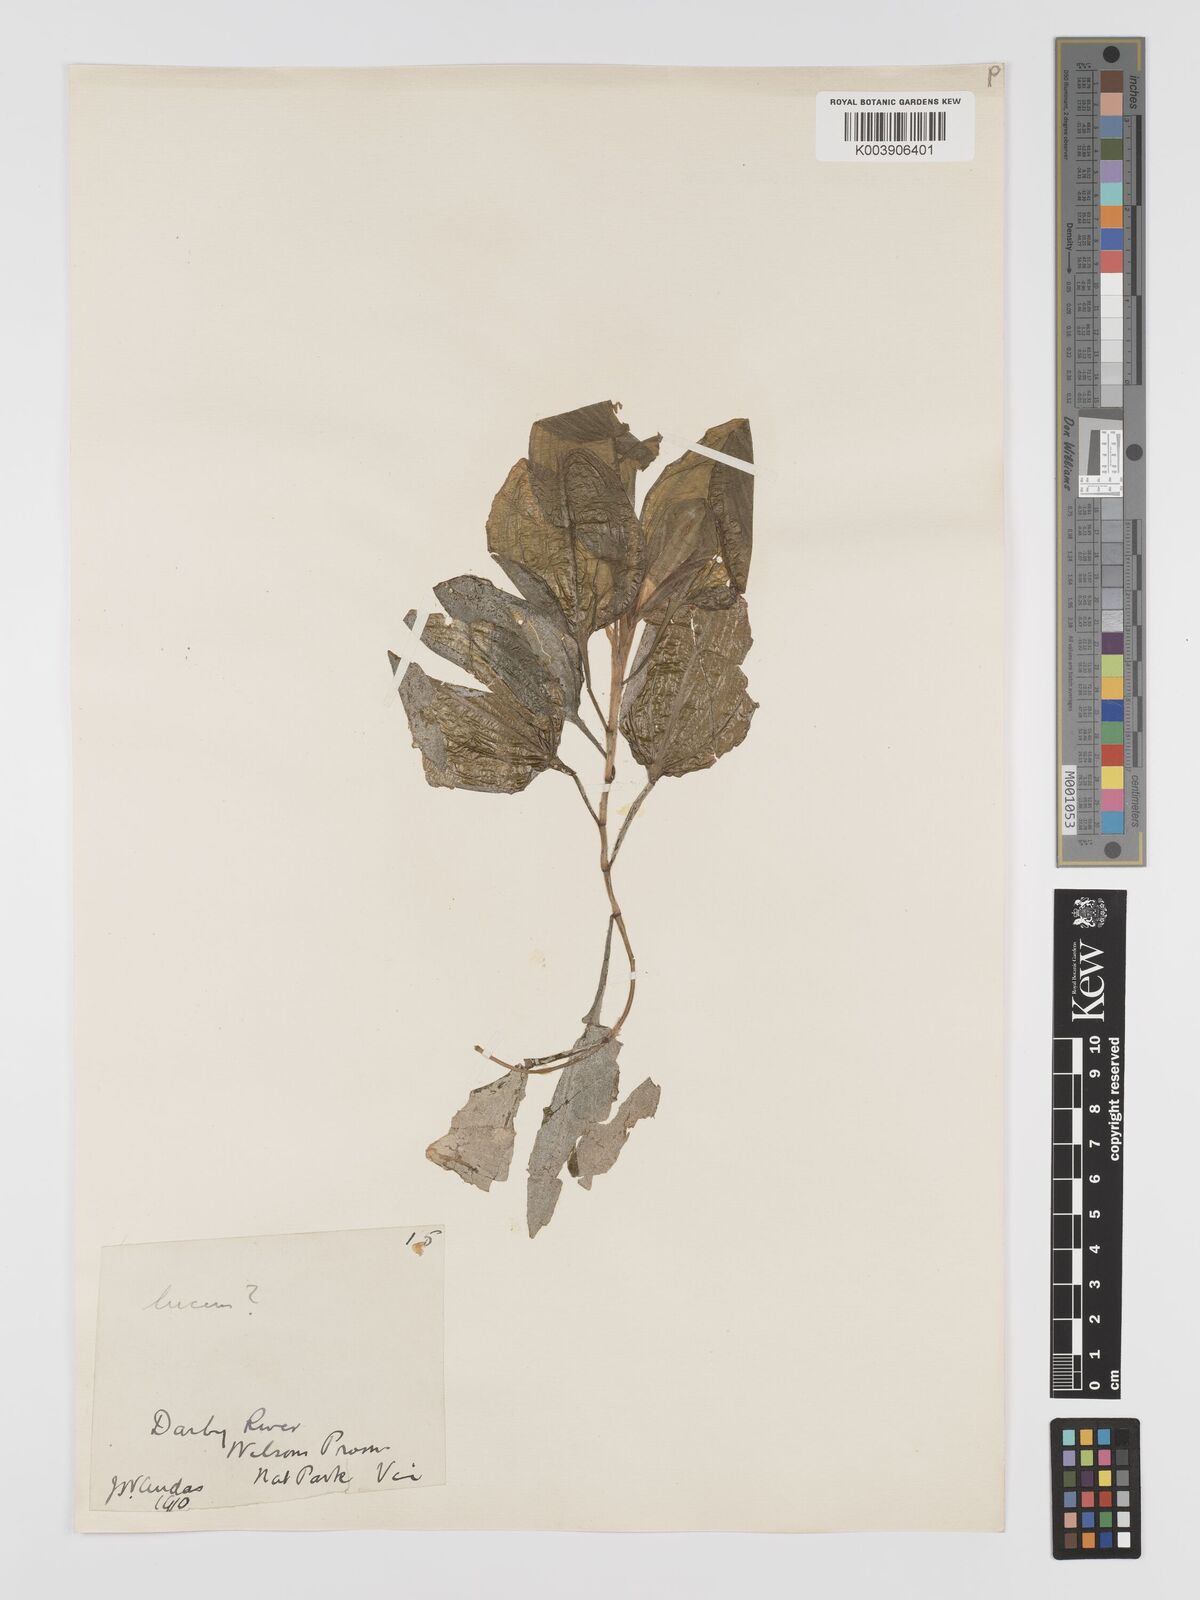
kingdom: Plantae
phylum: Tracheophyta
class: Liliopsida
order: Alismatales
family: Potamogetonaceae
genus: Potamogeton
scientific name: Potamogeton tricarinatus
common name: Pondweed
